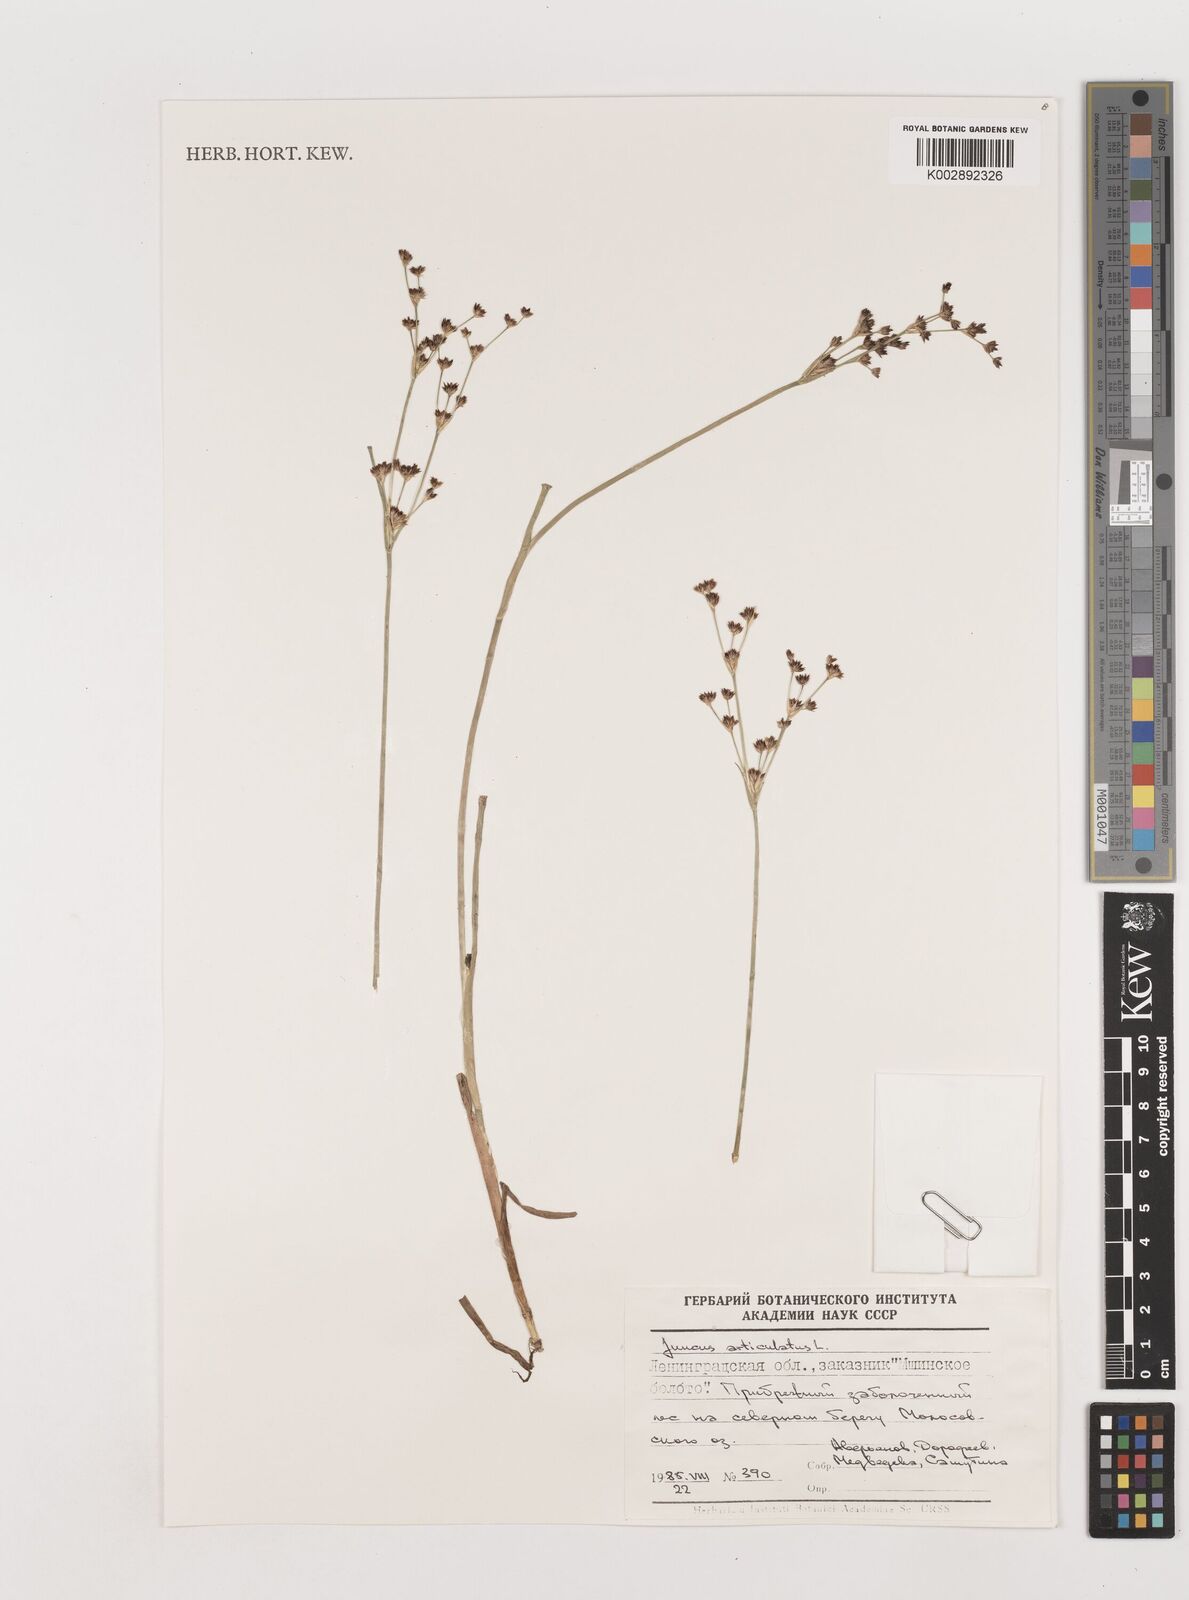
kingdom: Plantae
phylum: Tracheophyta
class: Liliopsida
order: Poales
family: Juncaceae
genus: Juncus
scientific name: Juncus articulatus
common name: Jointed rush
